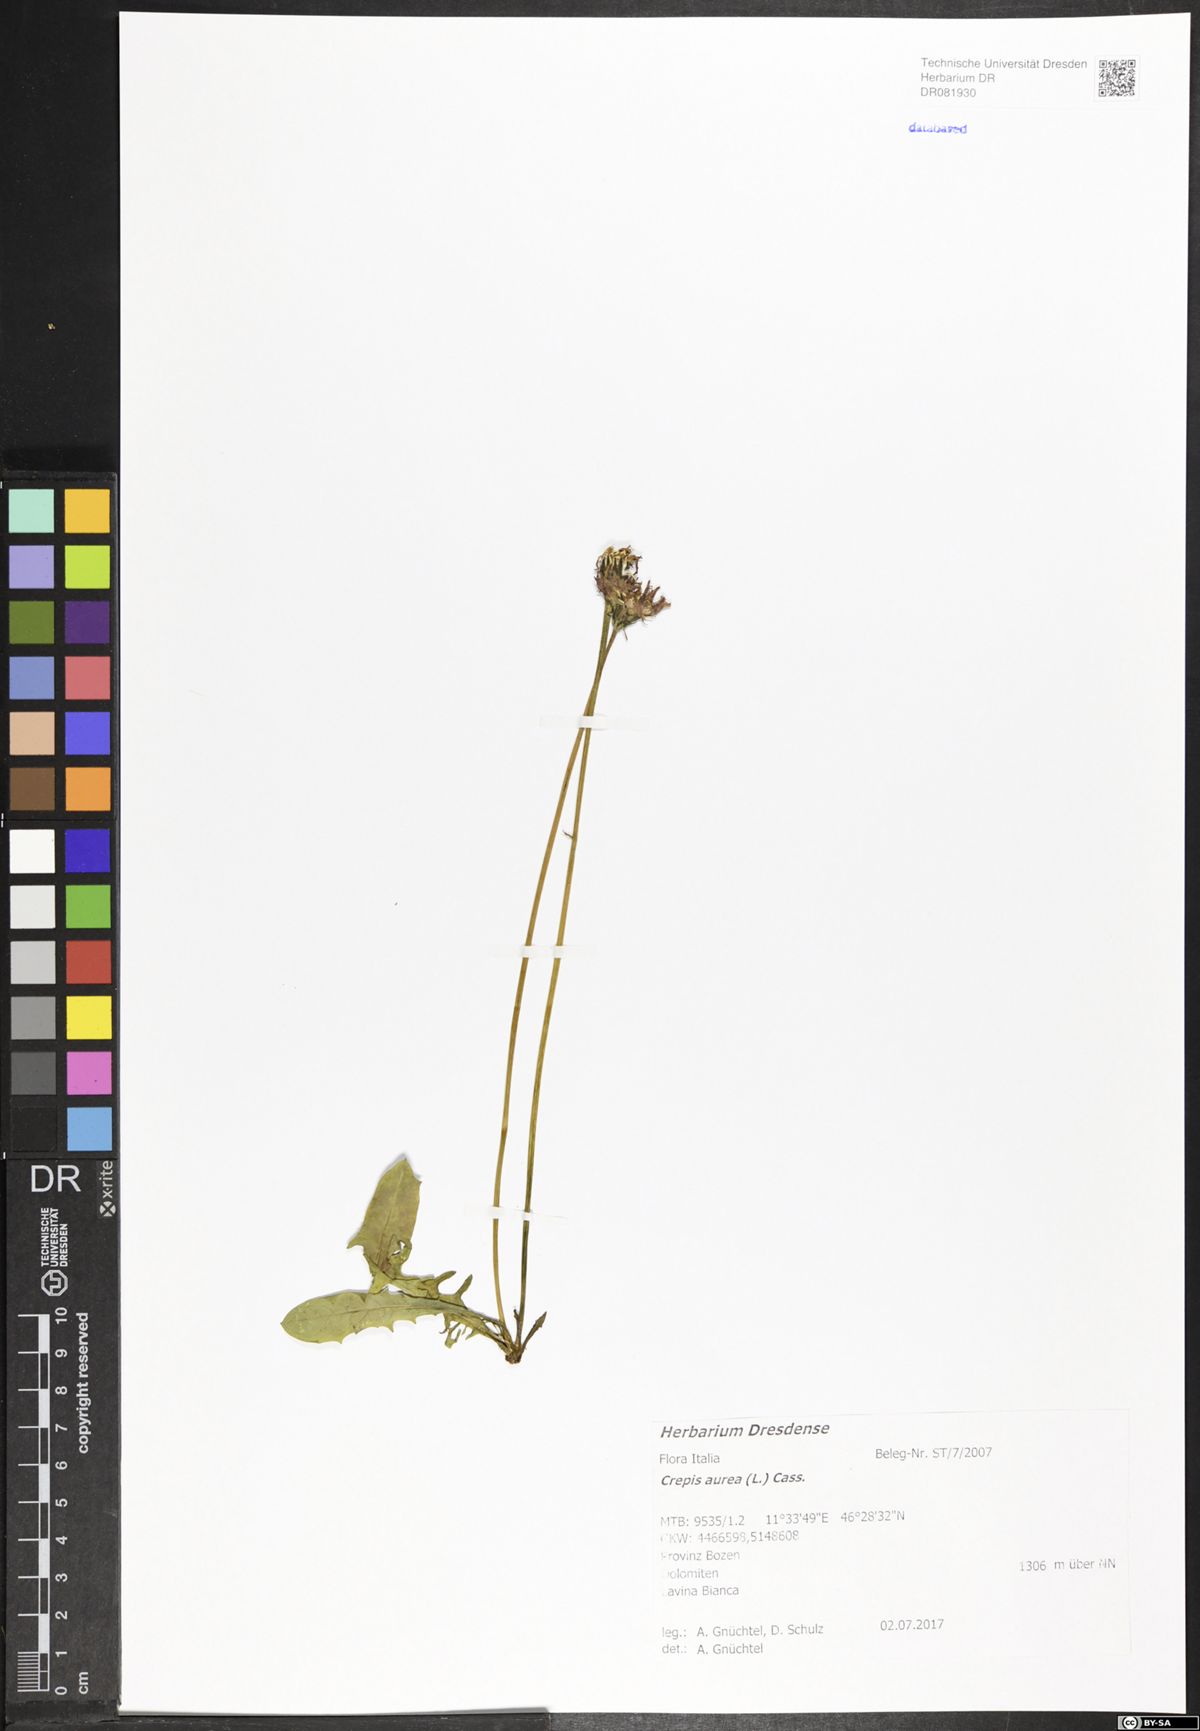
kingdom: Plantae
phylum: Tracheophyta
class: Magnoliopsida
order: Asterales
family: Asteraceae
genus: Crepis
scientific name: Crepis aurea
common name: Golden hawk's-beard
